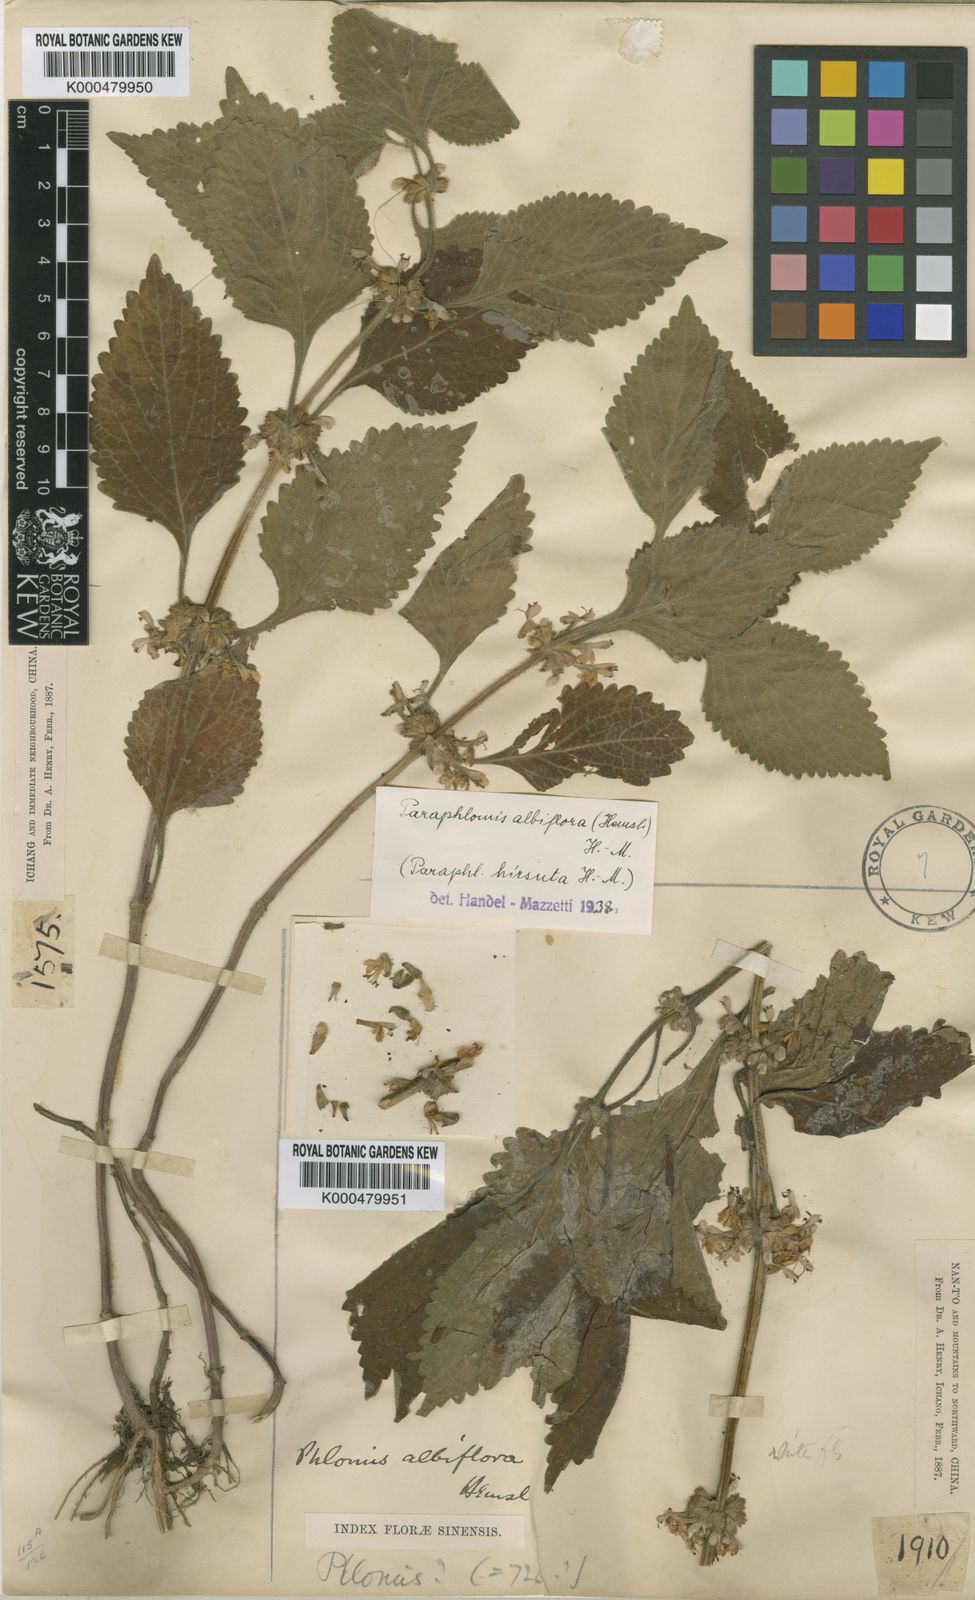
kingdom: Plantae
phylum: Tracheophyta
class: Magnoliopsida
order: Lamiales
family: Lamiaceae
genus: Paraphlomis
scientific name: Paraphlomis albiflora
